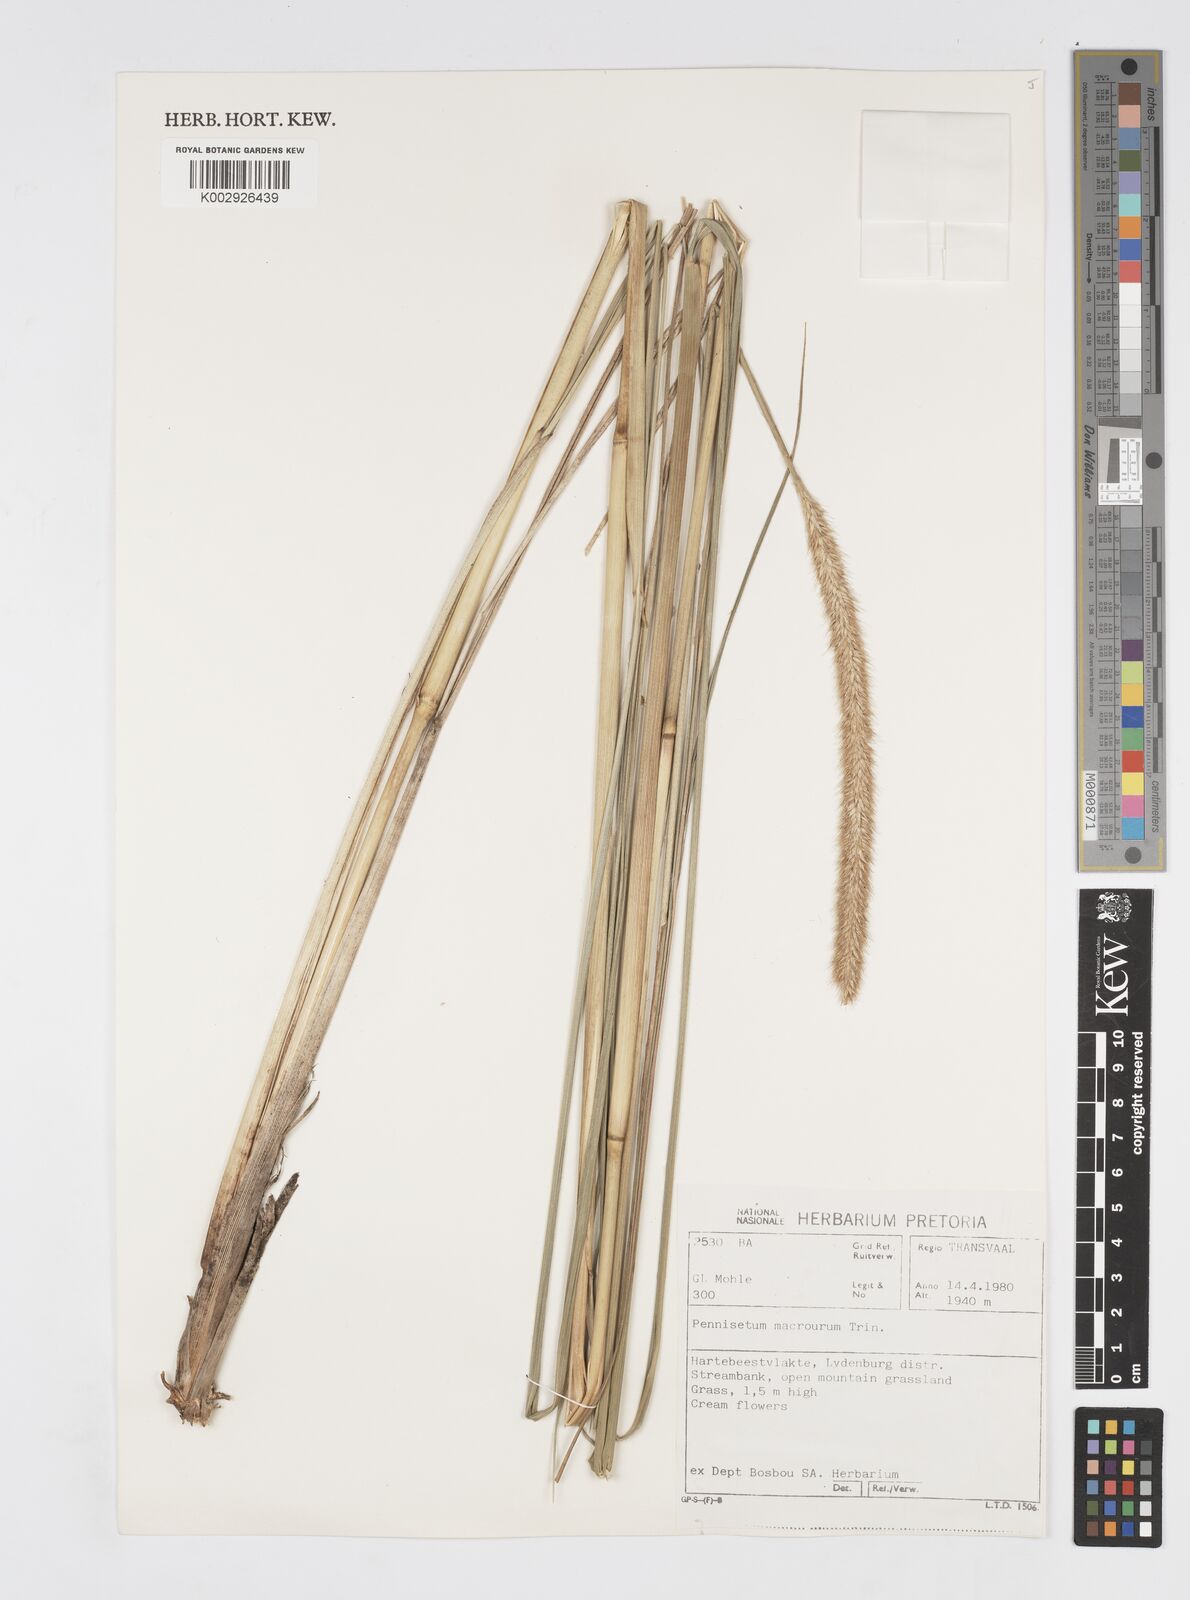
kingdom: Plantae
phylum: Tracheophyta
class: Liliopsida
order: Poales
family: Poaceae
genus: Cenchrus
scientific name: Cenchrus caudatus
